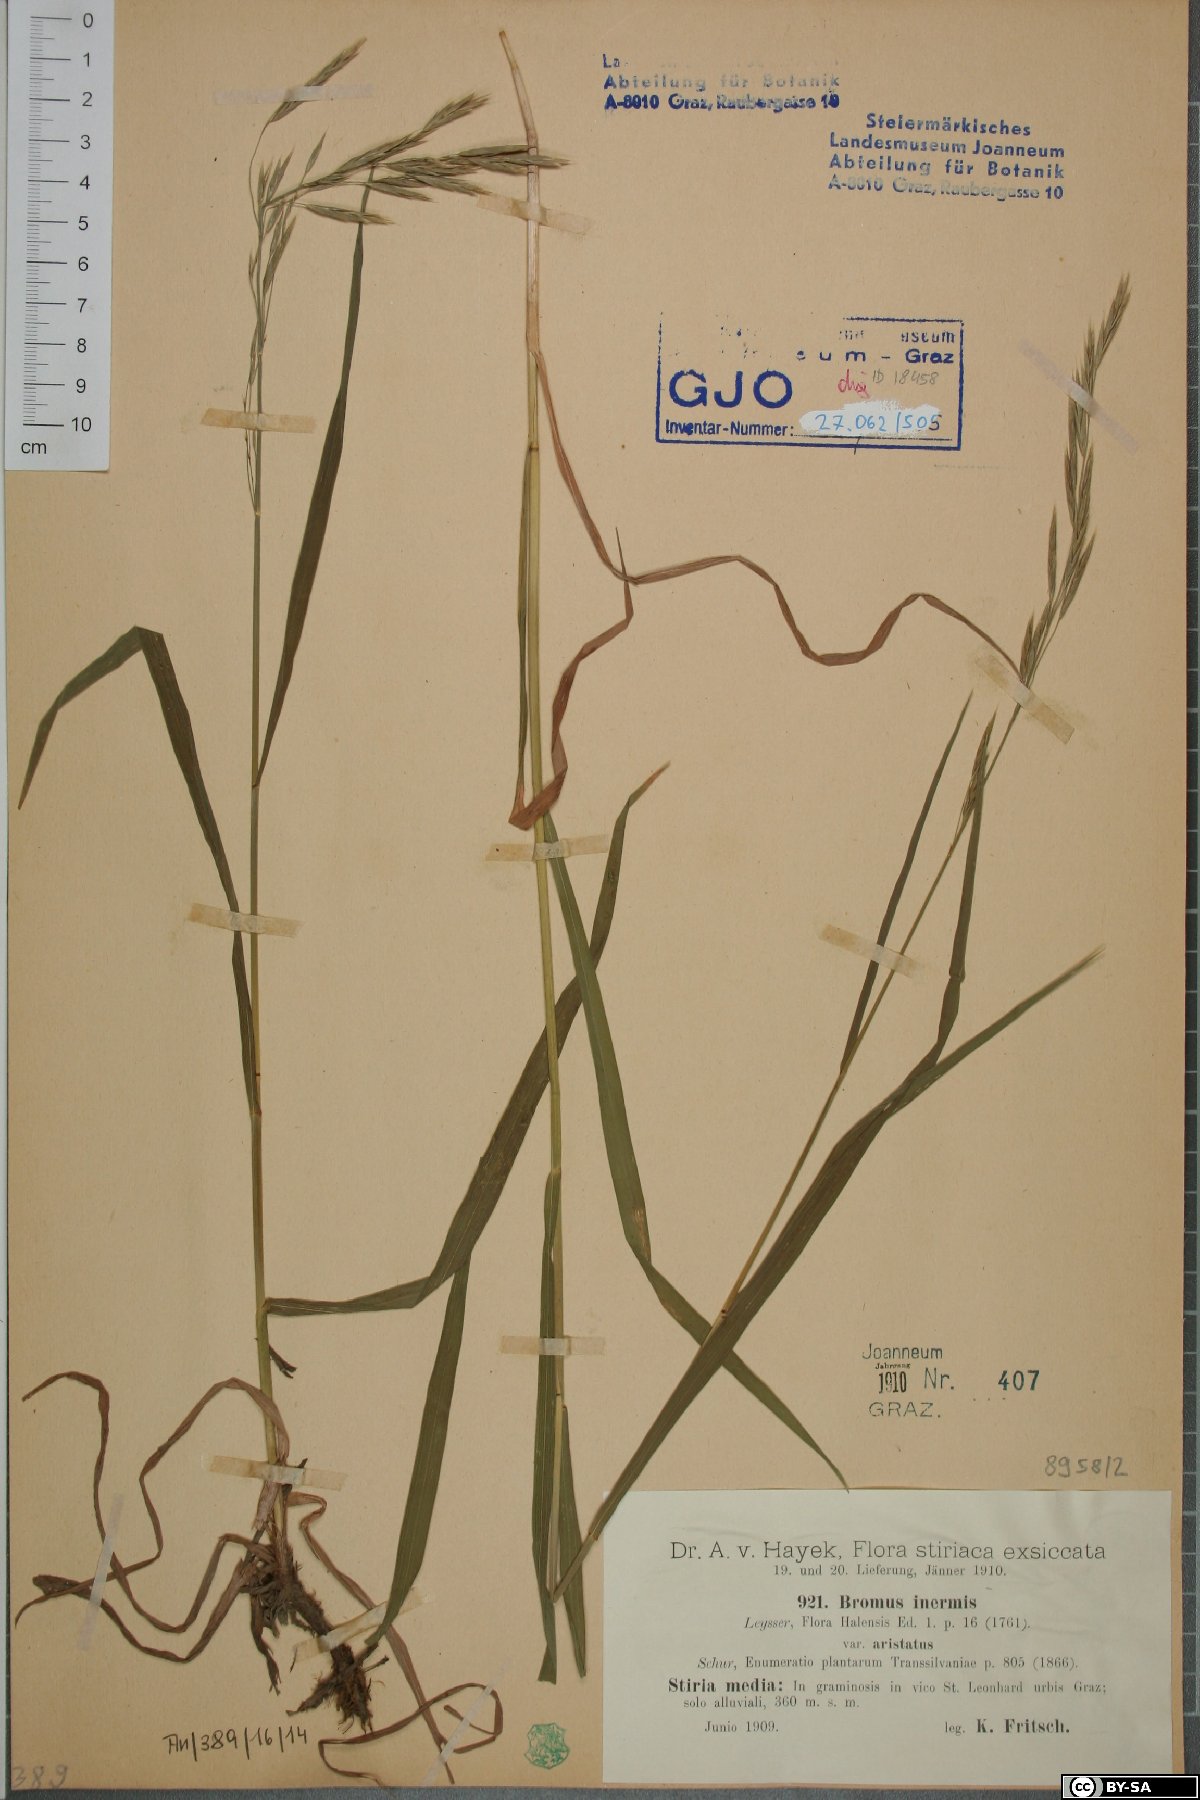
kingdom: Plantae
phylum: Tracheophyta
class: Liliopsida
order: Poales
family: Poaceae
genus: Bromus
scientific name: Bromus inermis
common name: Smooth brome
